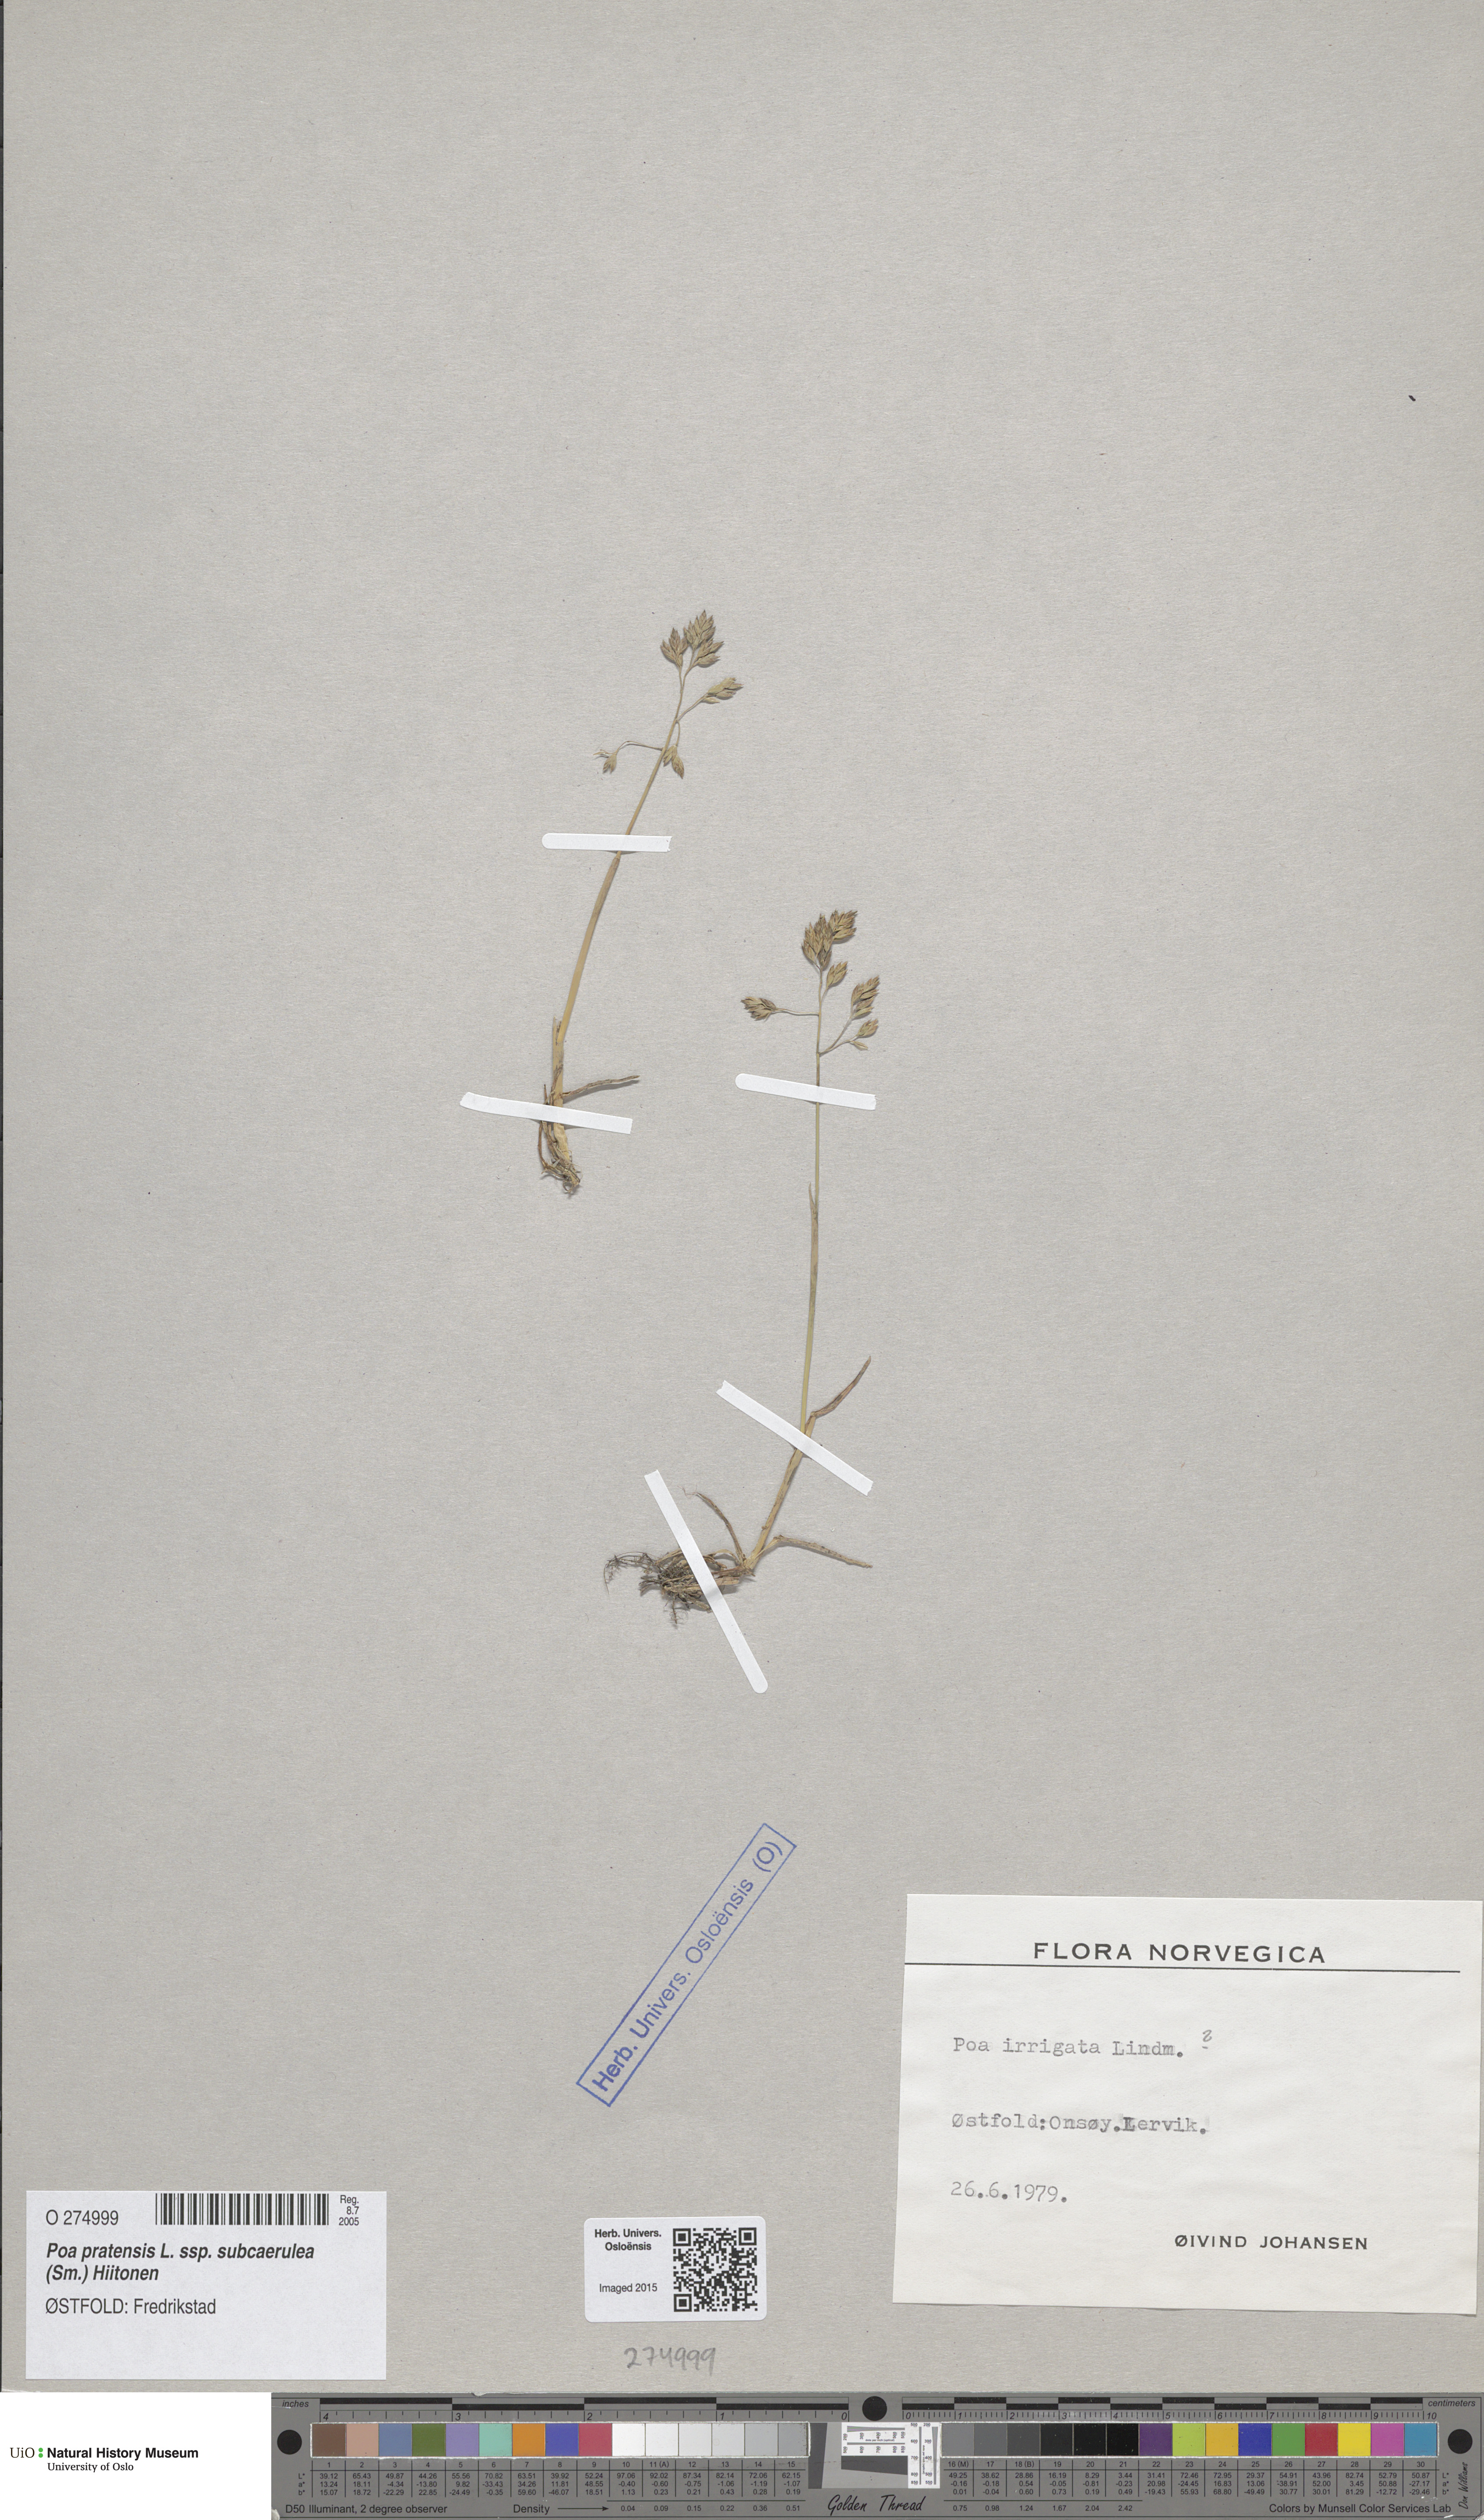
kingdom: Plantae
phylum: Tracheophyta
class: Liliopsida
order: Poales
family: Poaceae
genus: Poa
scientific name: Poa humilis
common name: Spreading meadow-grass
